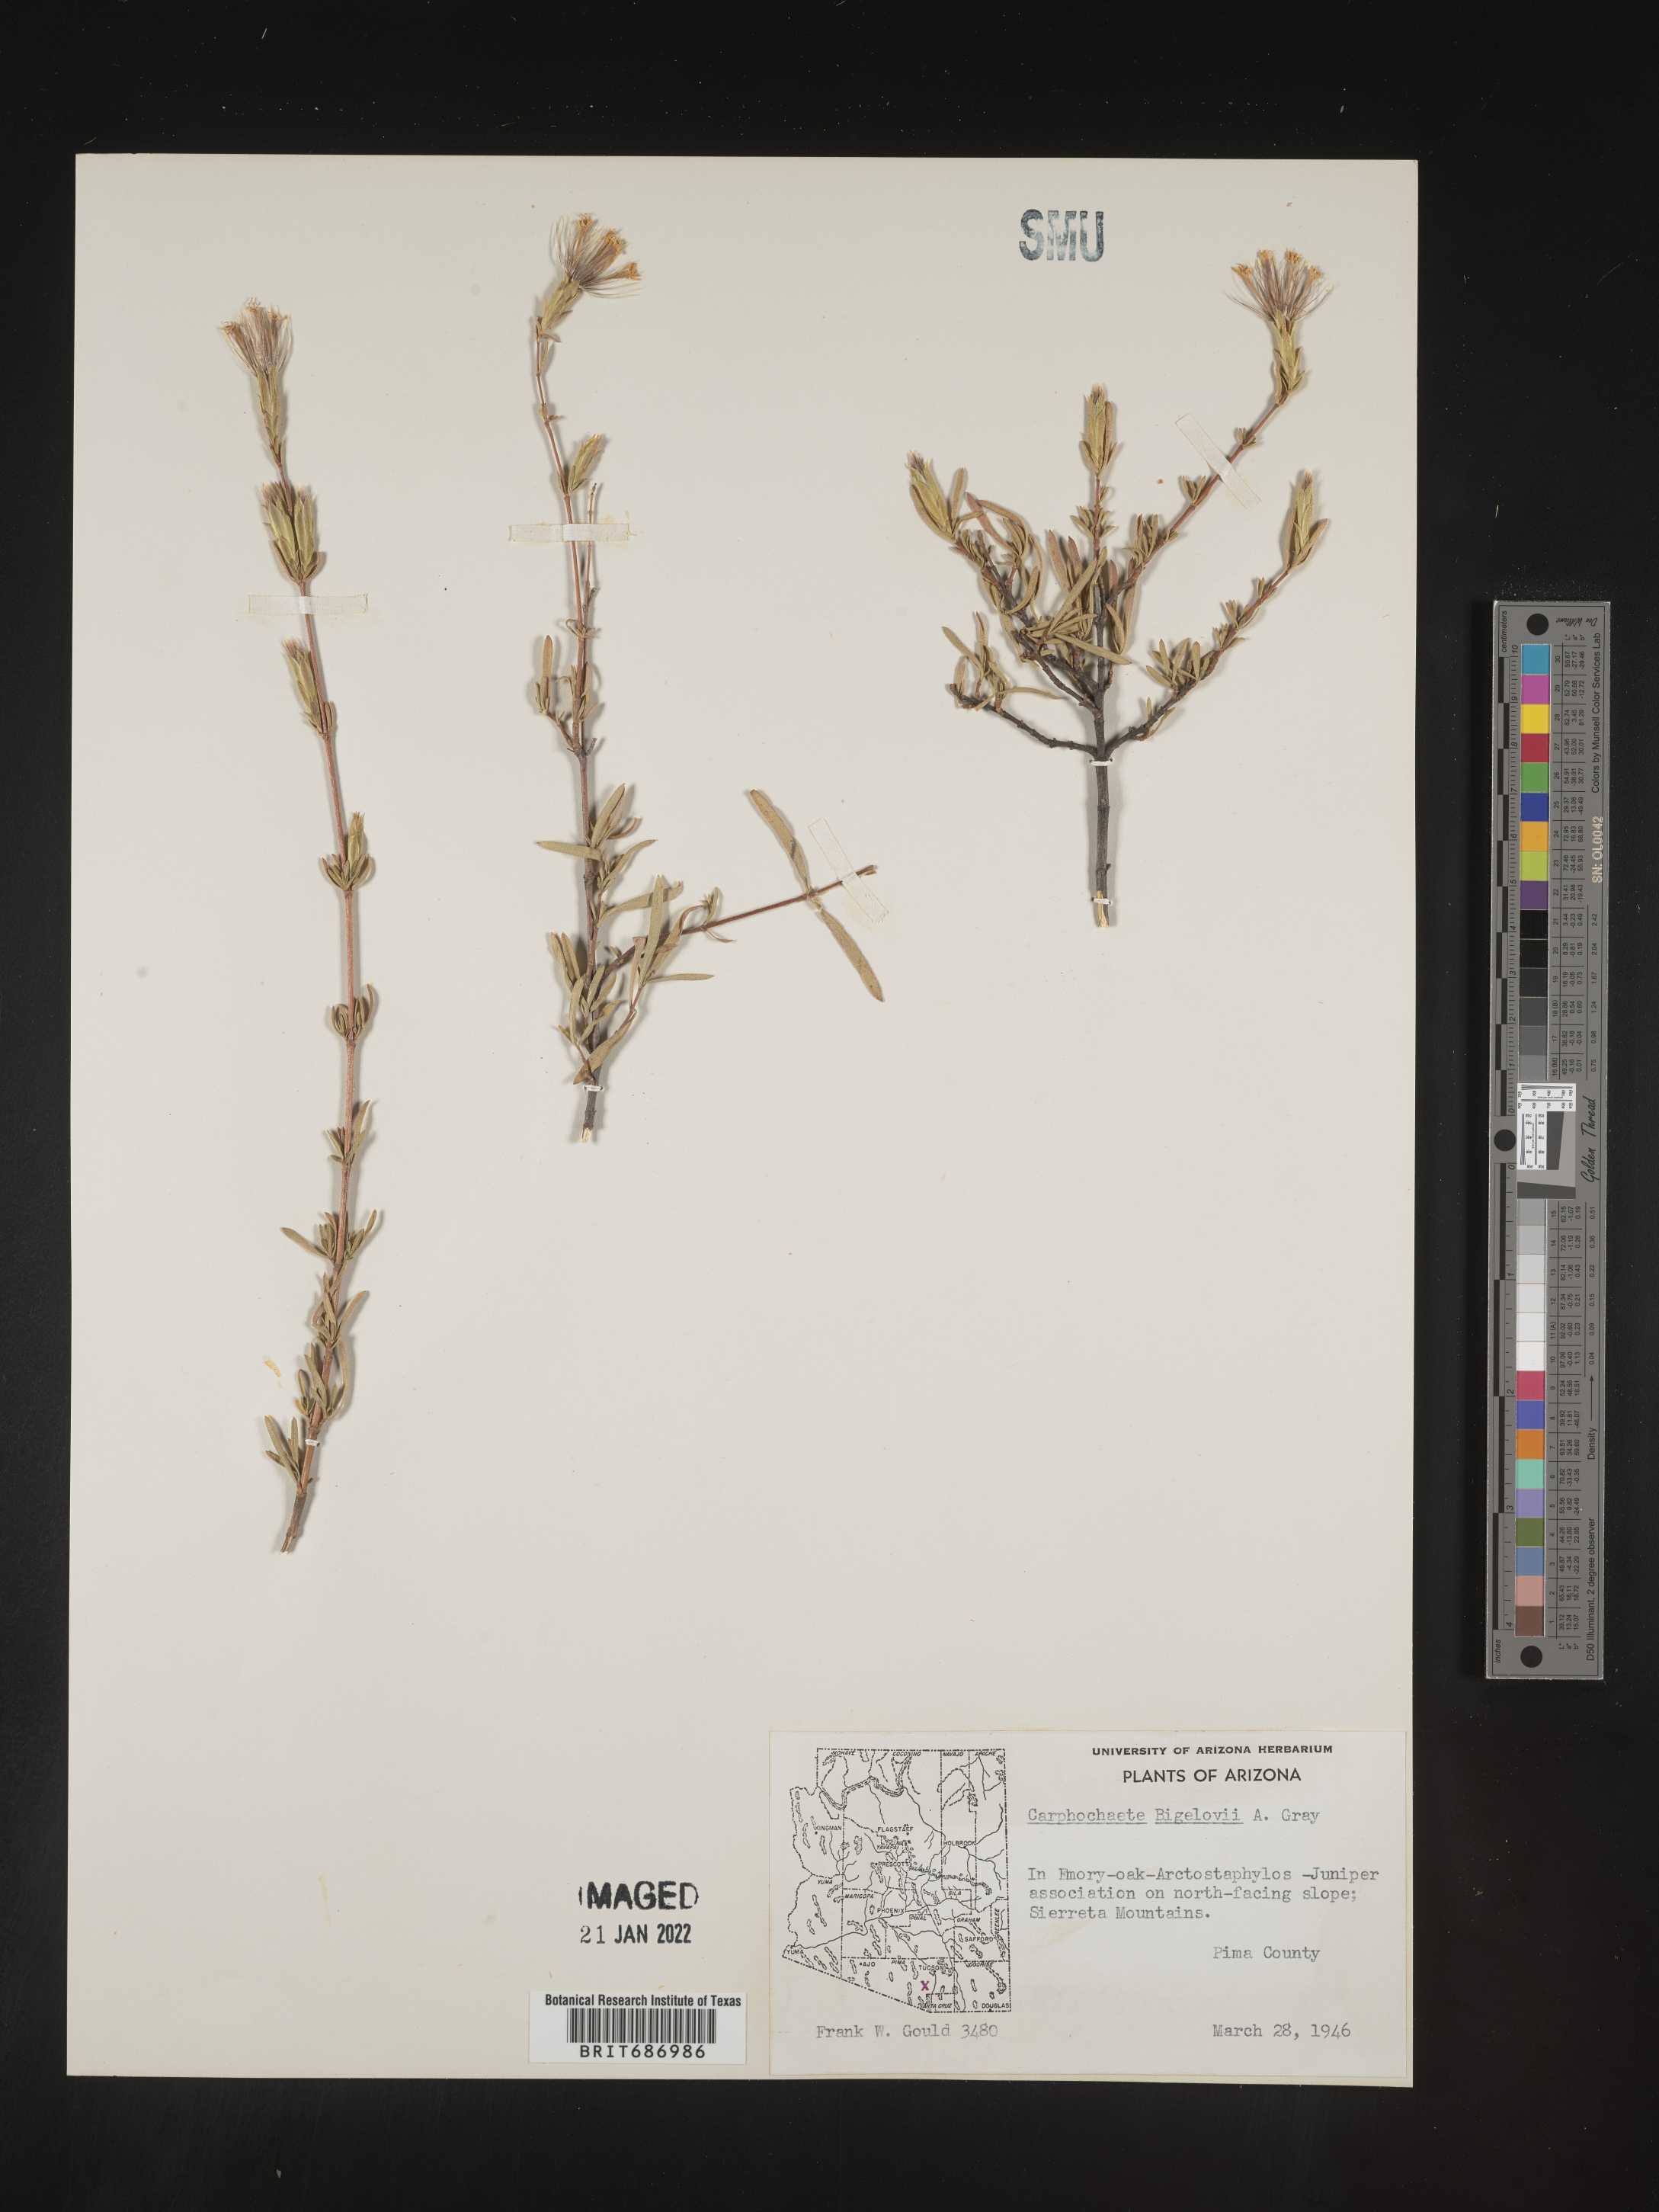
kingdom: Plantae
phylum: Tracheophyta
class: Magnoliopsida
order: Asterales
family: Asteraceae
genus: Carphochaete
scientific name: Carphochaete
